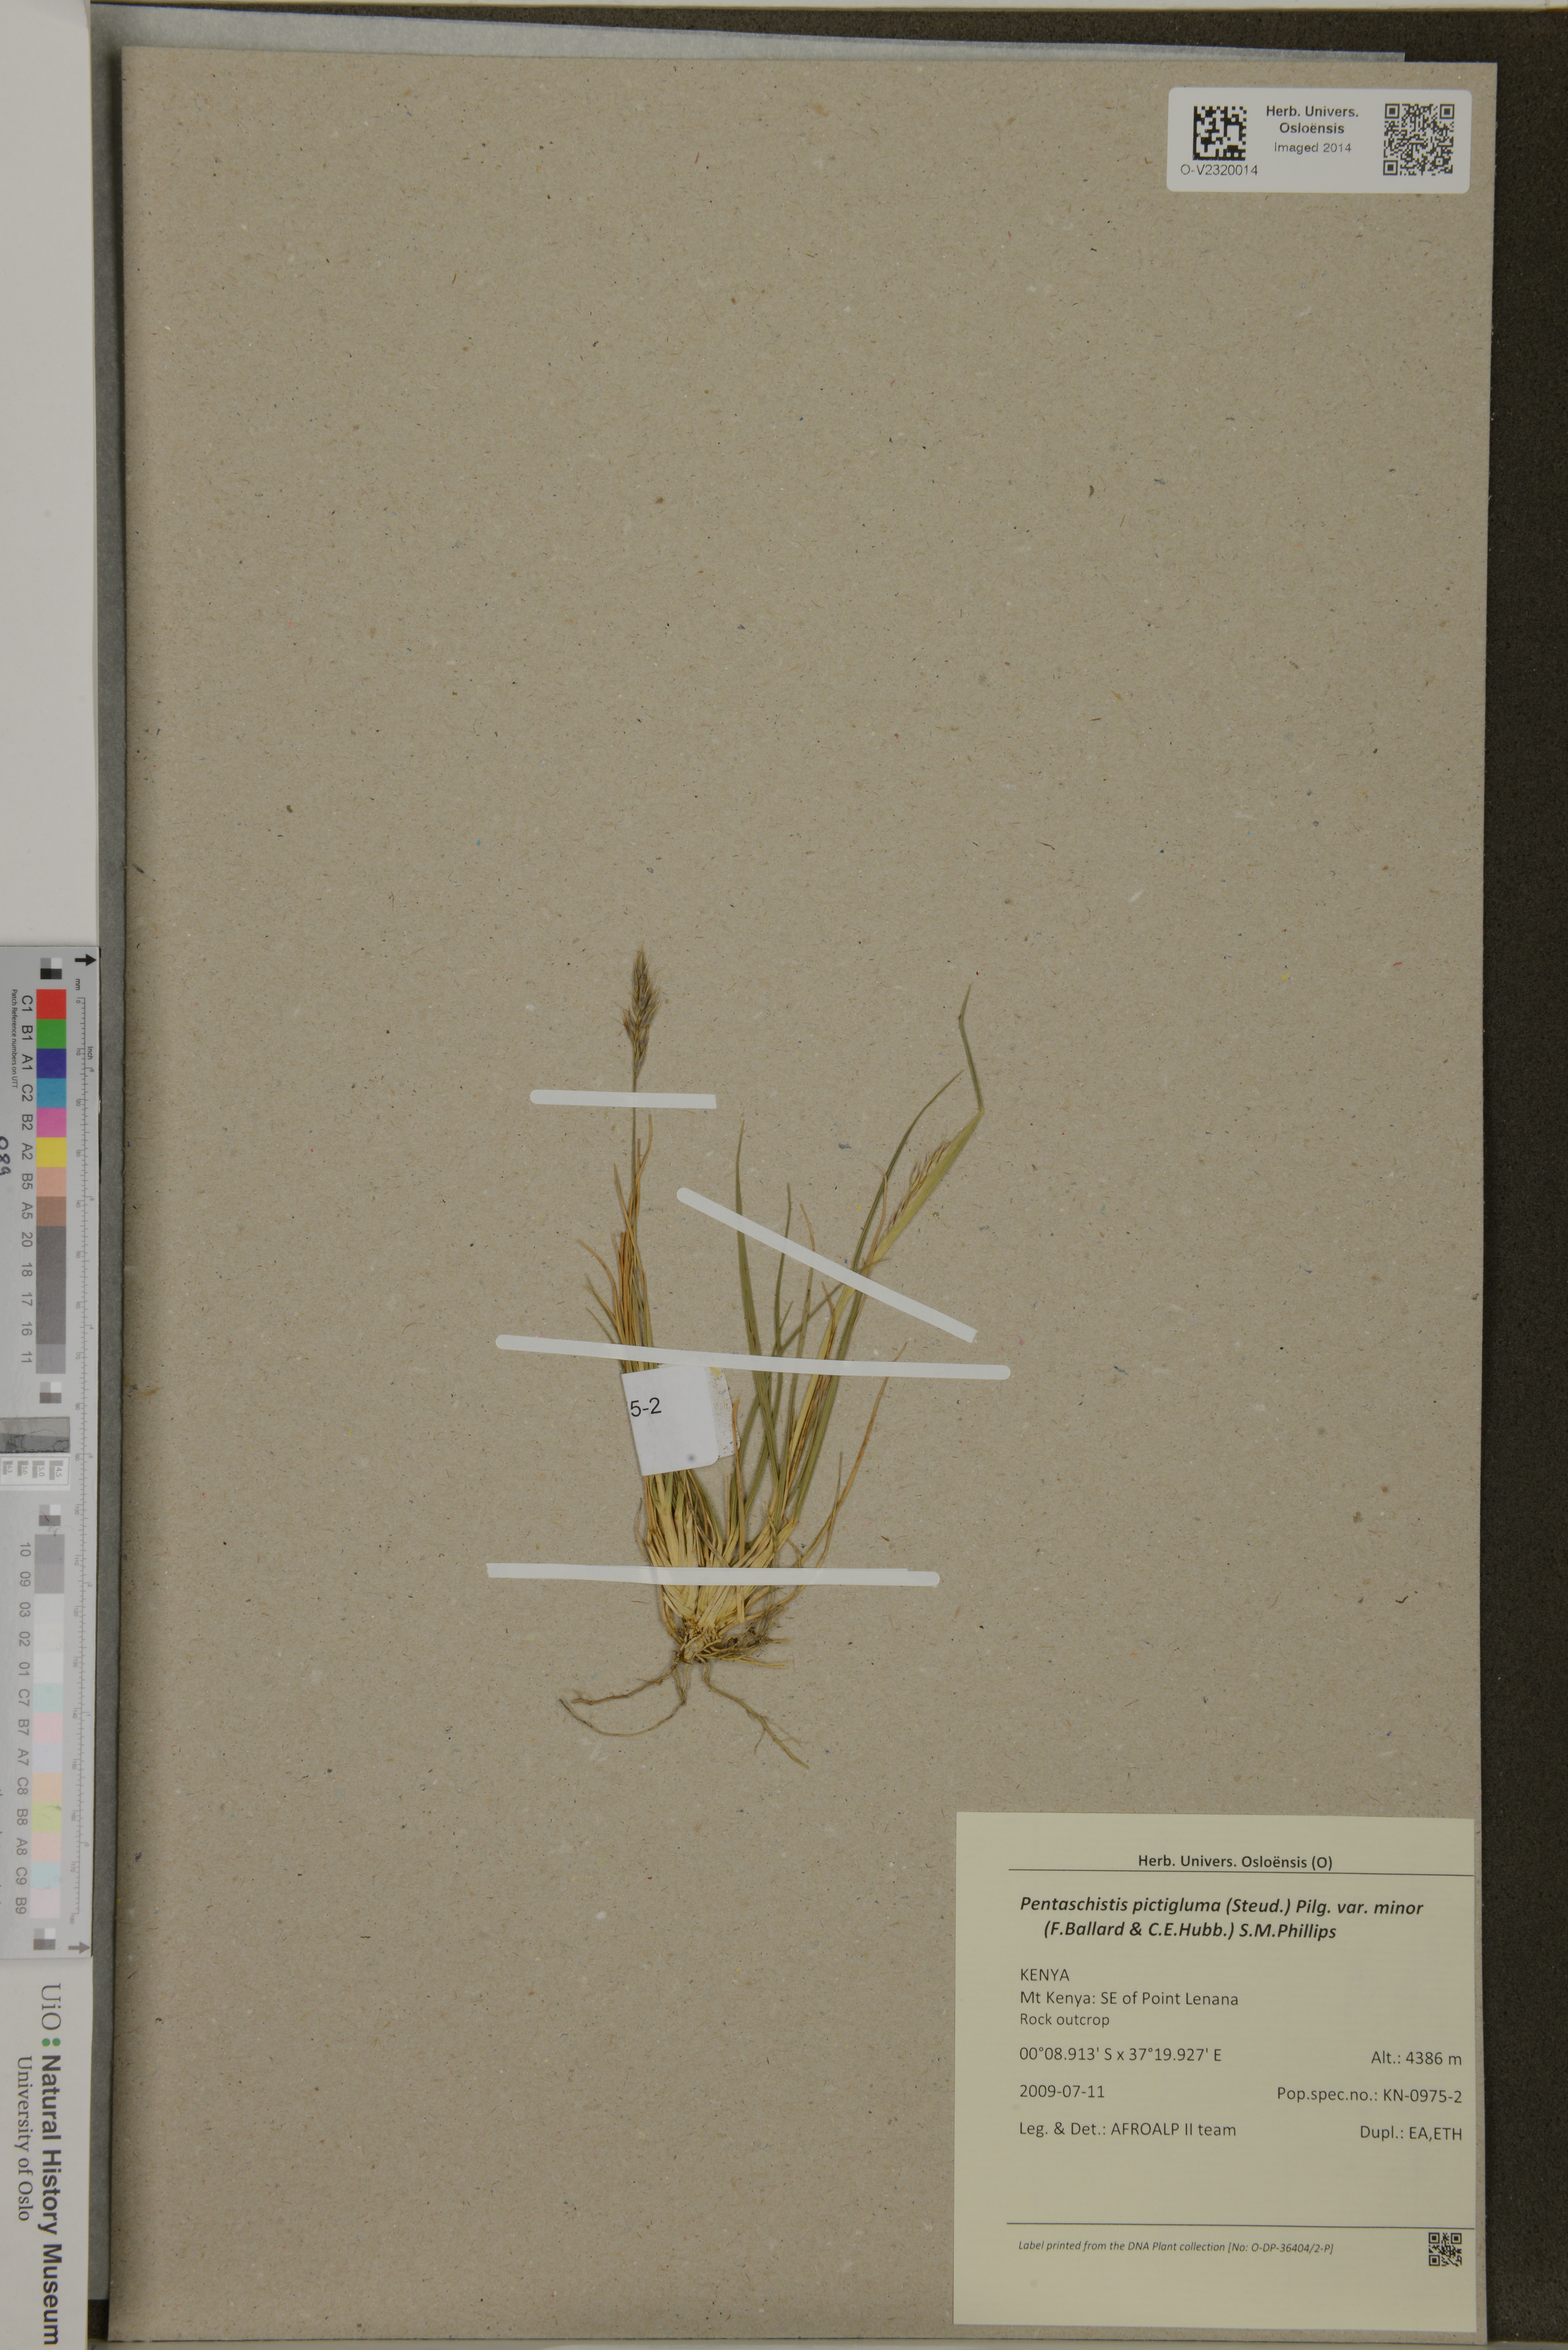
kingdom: Plantae
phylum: Tracheophyta
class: Liliopsida
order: Poales
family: Poaceae
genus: Pentameris
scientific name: Pentameris pictigluma
